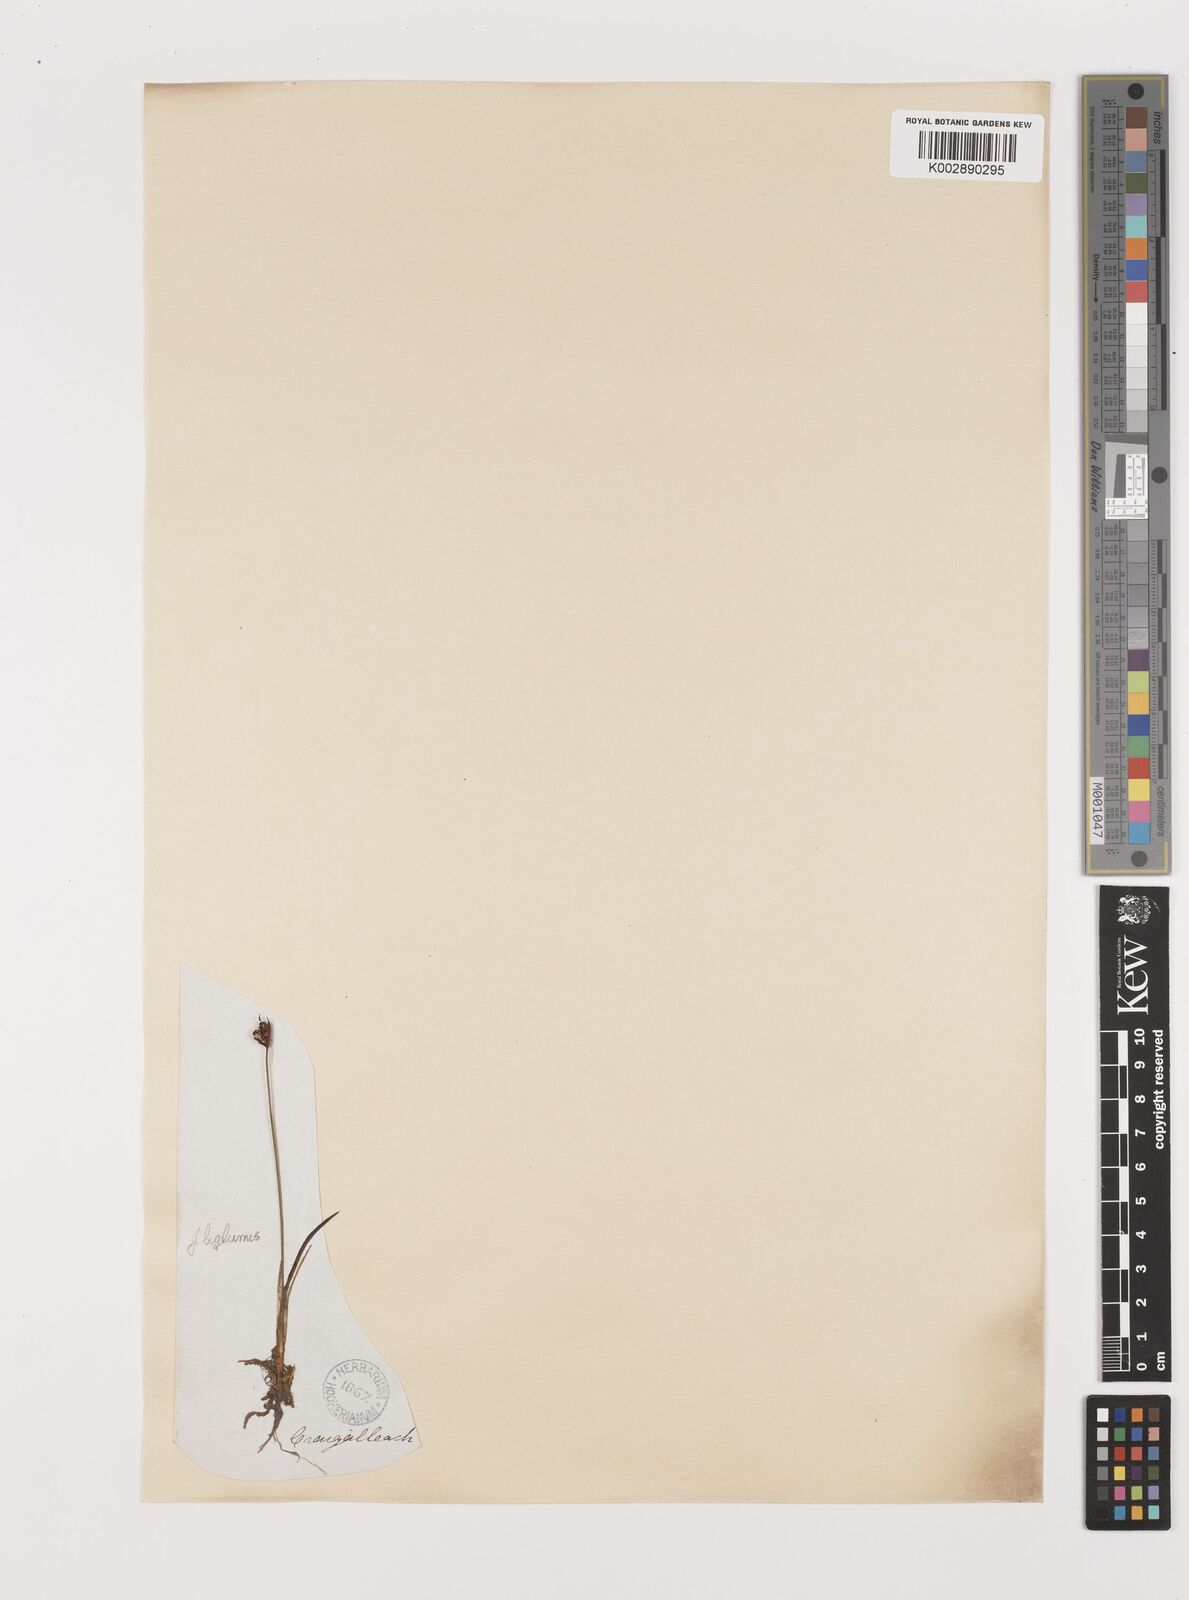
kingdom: Plantae
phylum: Tracheophyta
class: Liliopsida
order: Poales
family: Juncaceae
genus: Juncus
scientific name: Juncus biglumis
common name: Two-flowered rush
